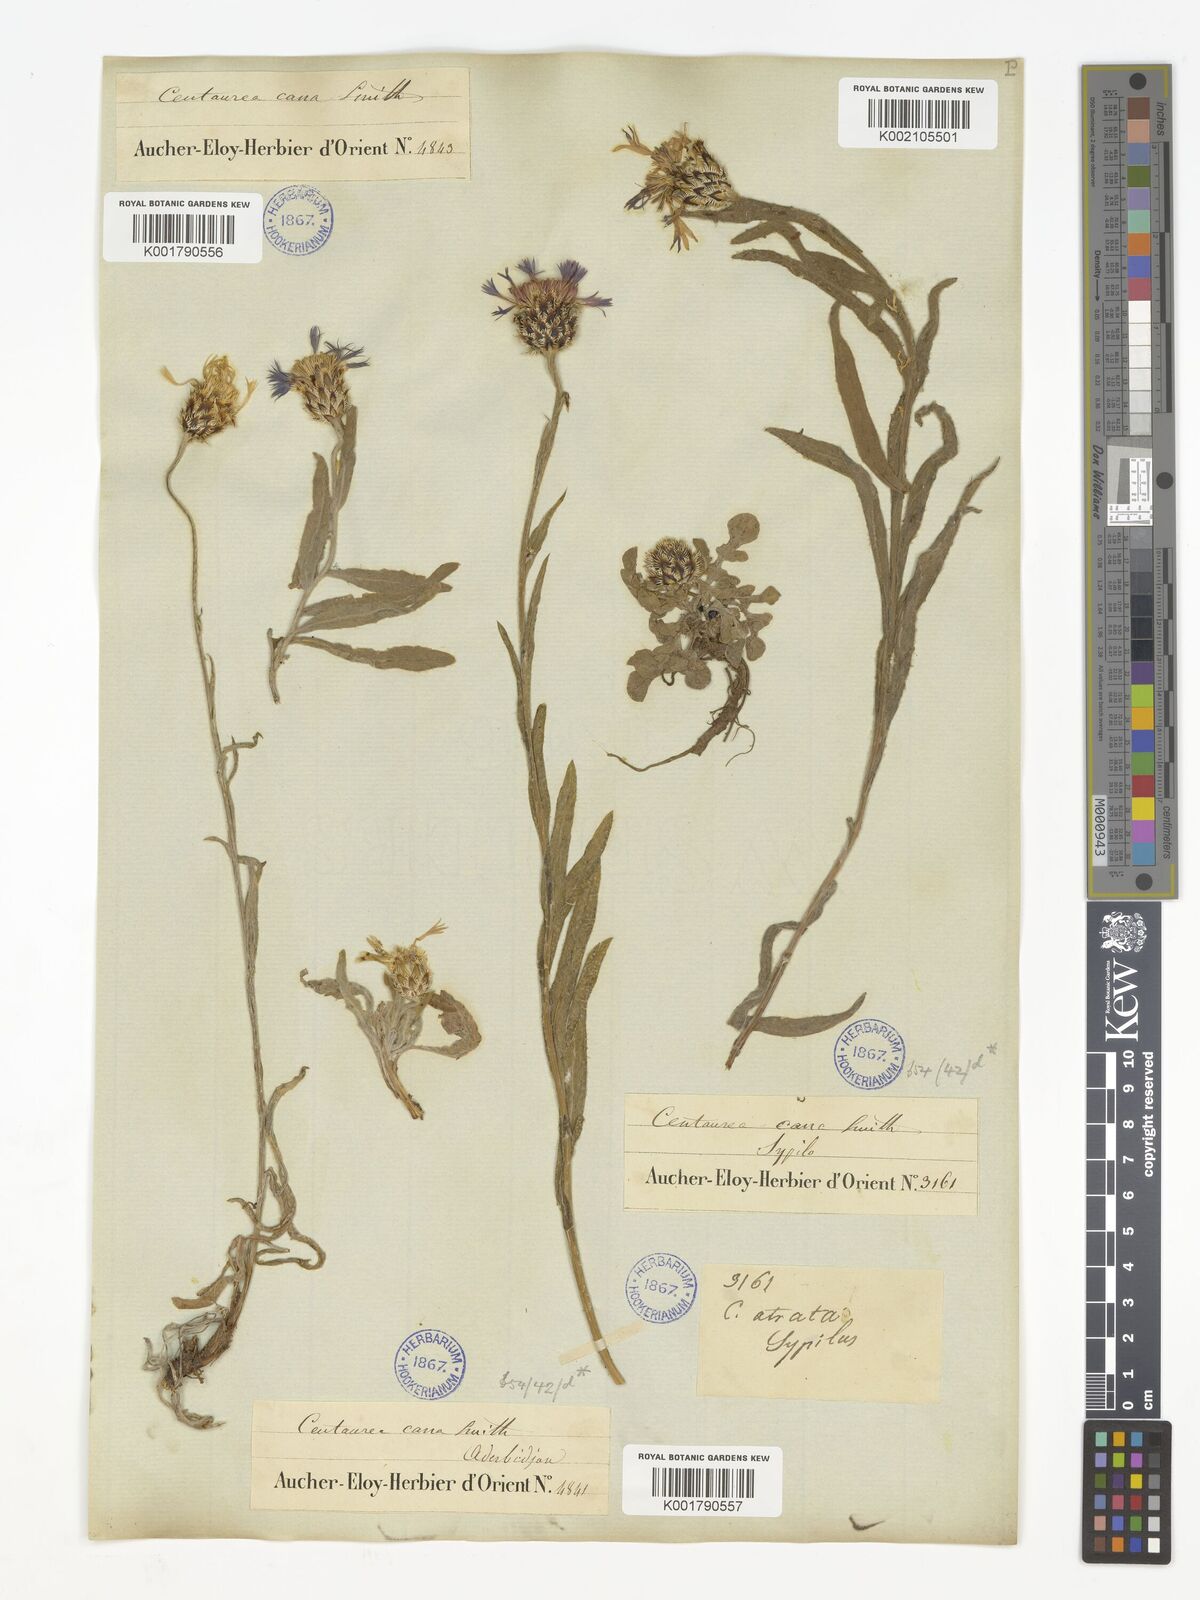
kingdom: Plantae
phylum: Tracheophyta
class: Magnoliopsida
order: Asterales
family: Asteraceae
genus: Centaurea
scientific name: Centaurea triumfettii
